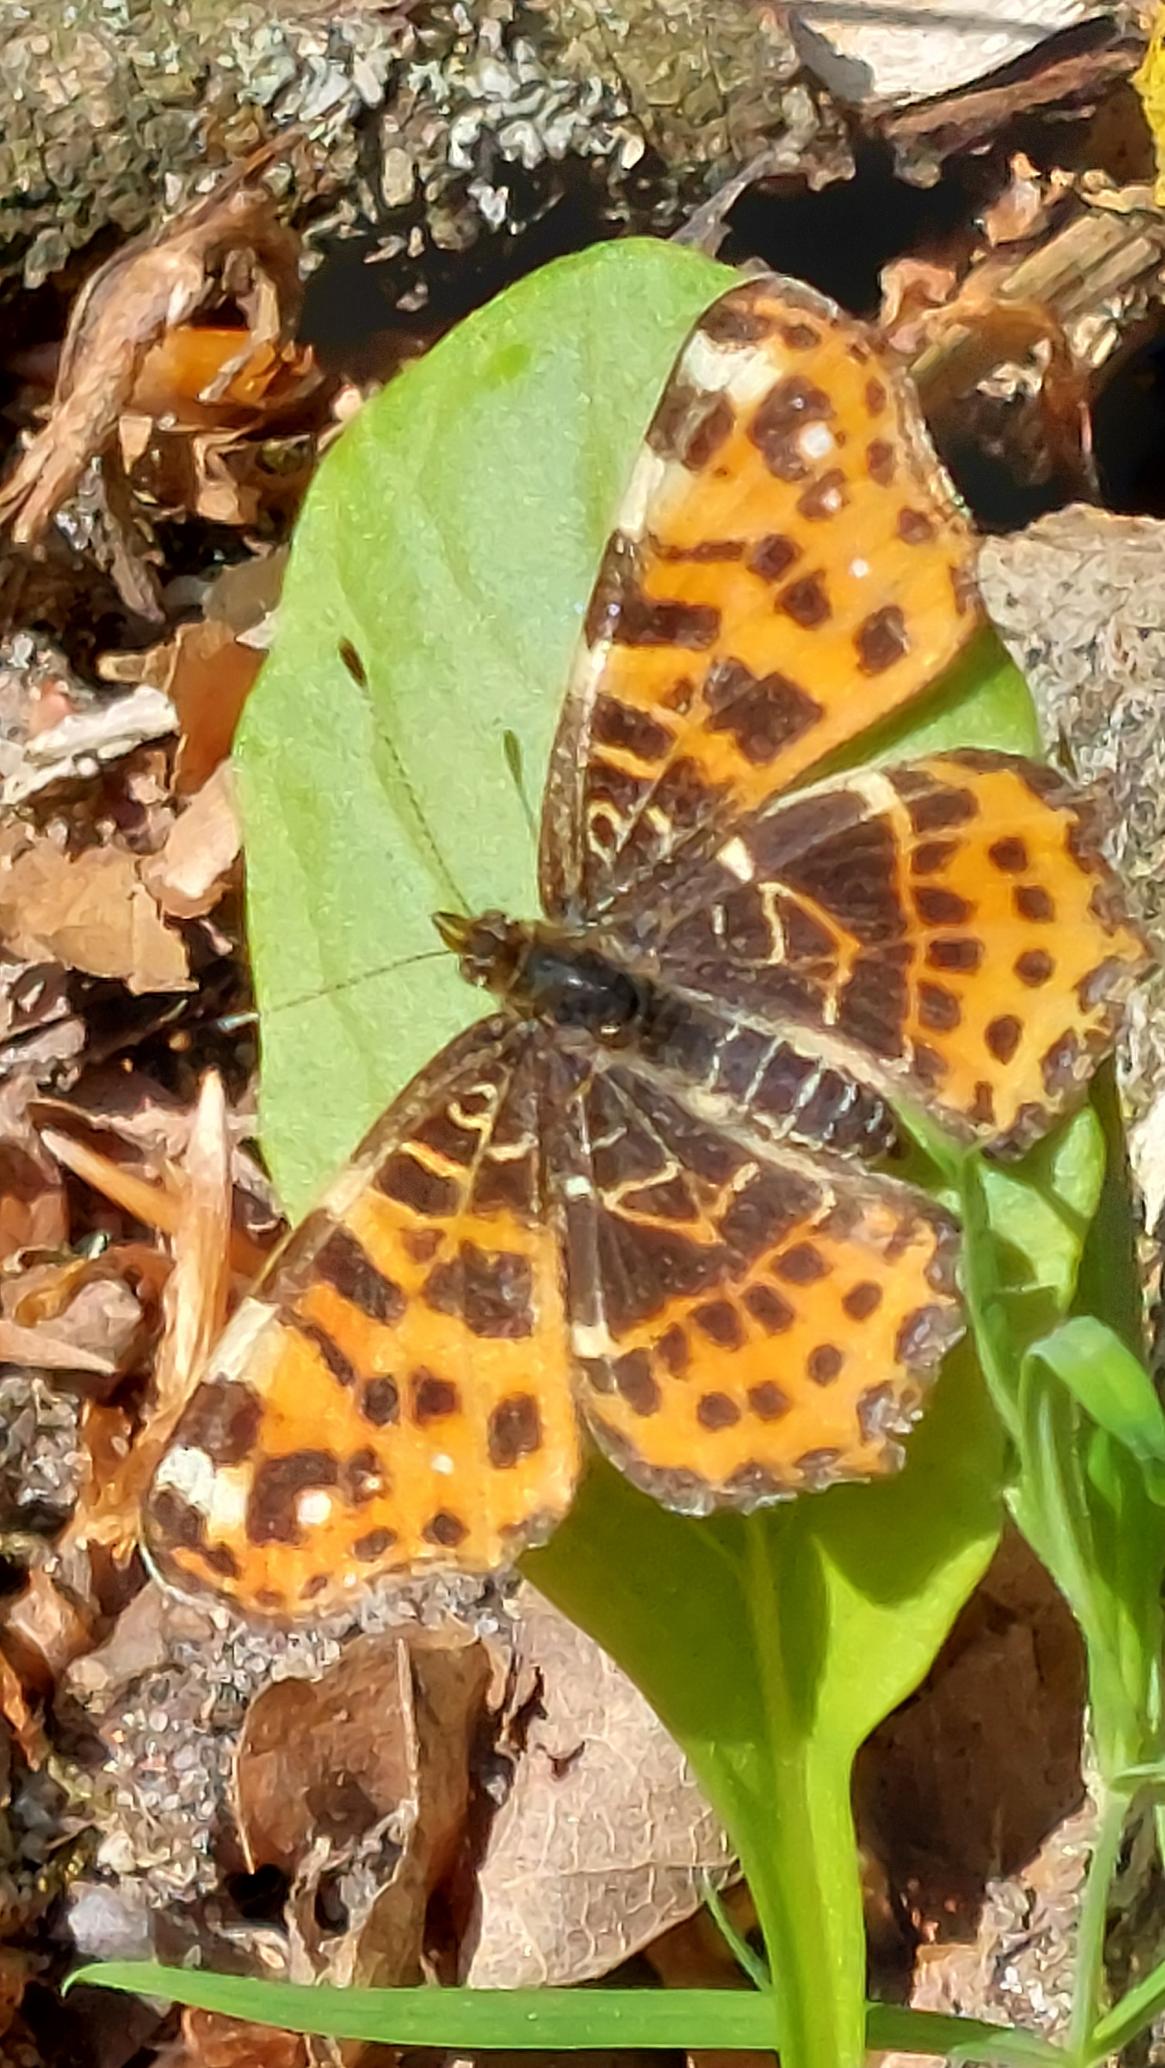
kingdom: Animalia
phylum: Arthropoda
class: Insecta
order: Lepidoptera
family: Nymphalidae
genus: Araschnia
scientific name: Araschnia levana
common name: Nældesommerfugl
